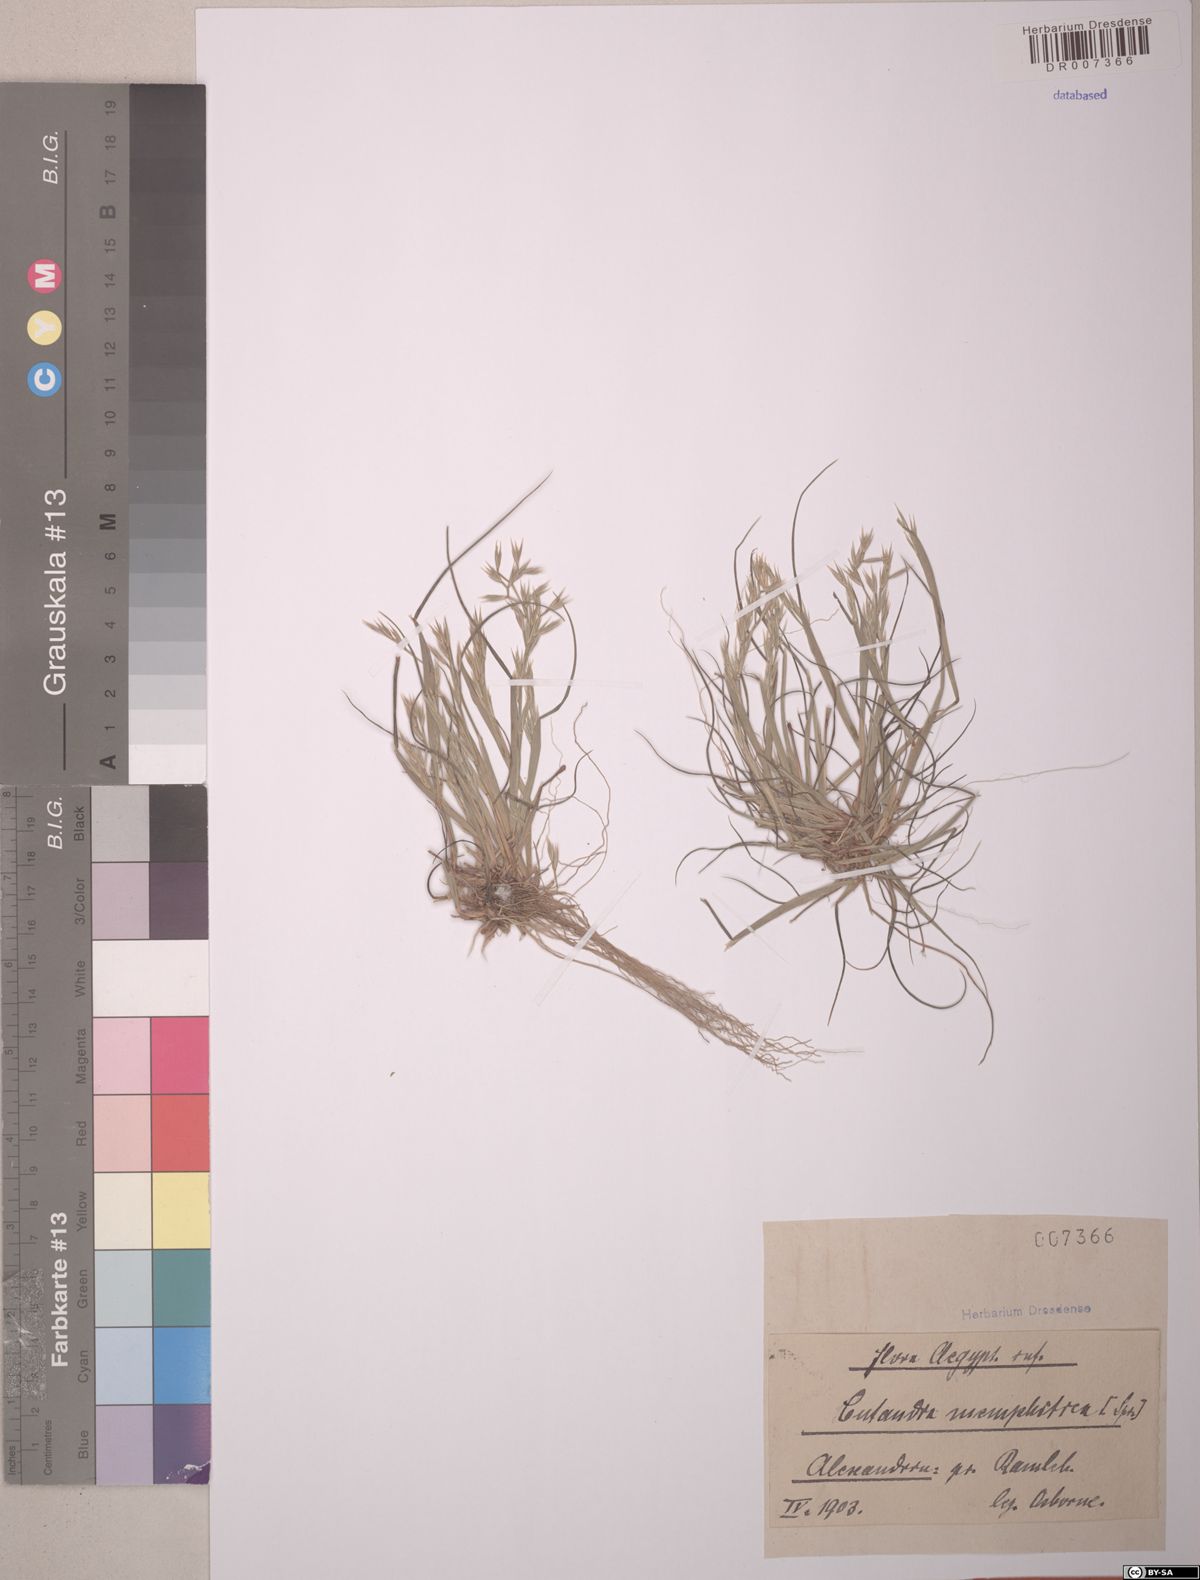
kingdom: Plantae
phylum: Tracheophyta
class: Liliopsida
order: Poales
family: Poaceae
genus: Cutandia
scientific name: Cutandia memphitica
